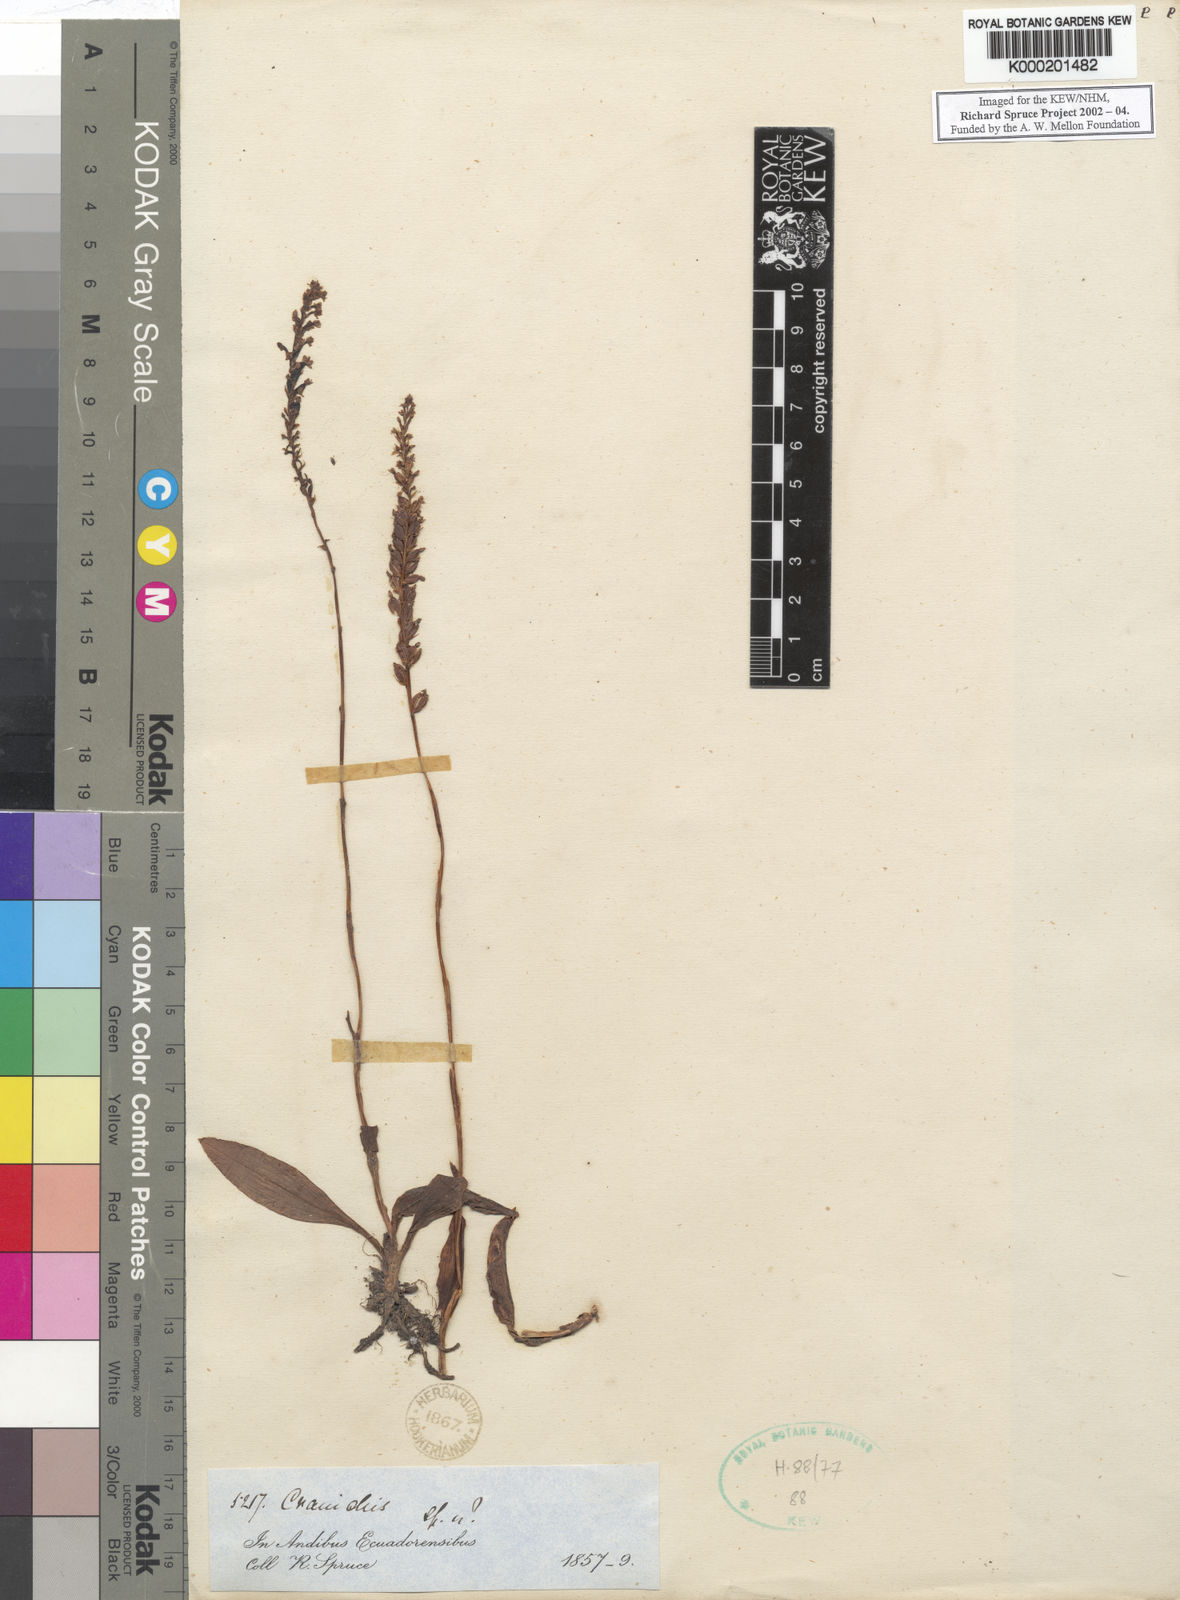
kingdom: Plantae
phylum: Tracheophyta
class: Liliopsida
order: Asparagales
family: Orchidaceae
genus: Cranichis
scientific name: Cranichis
